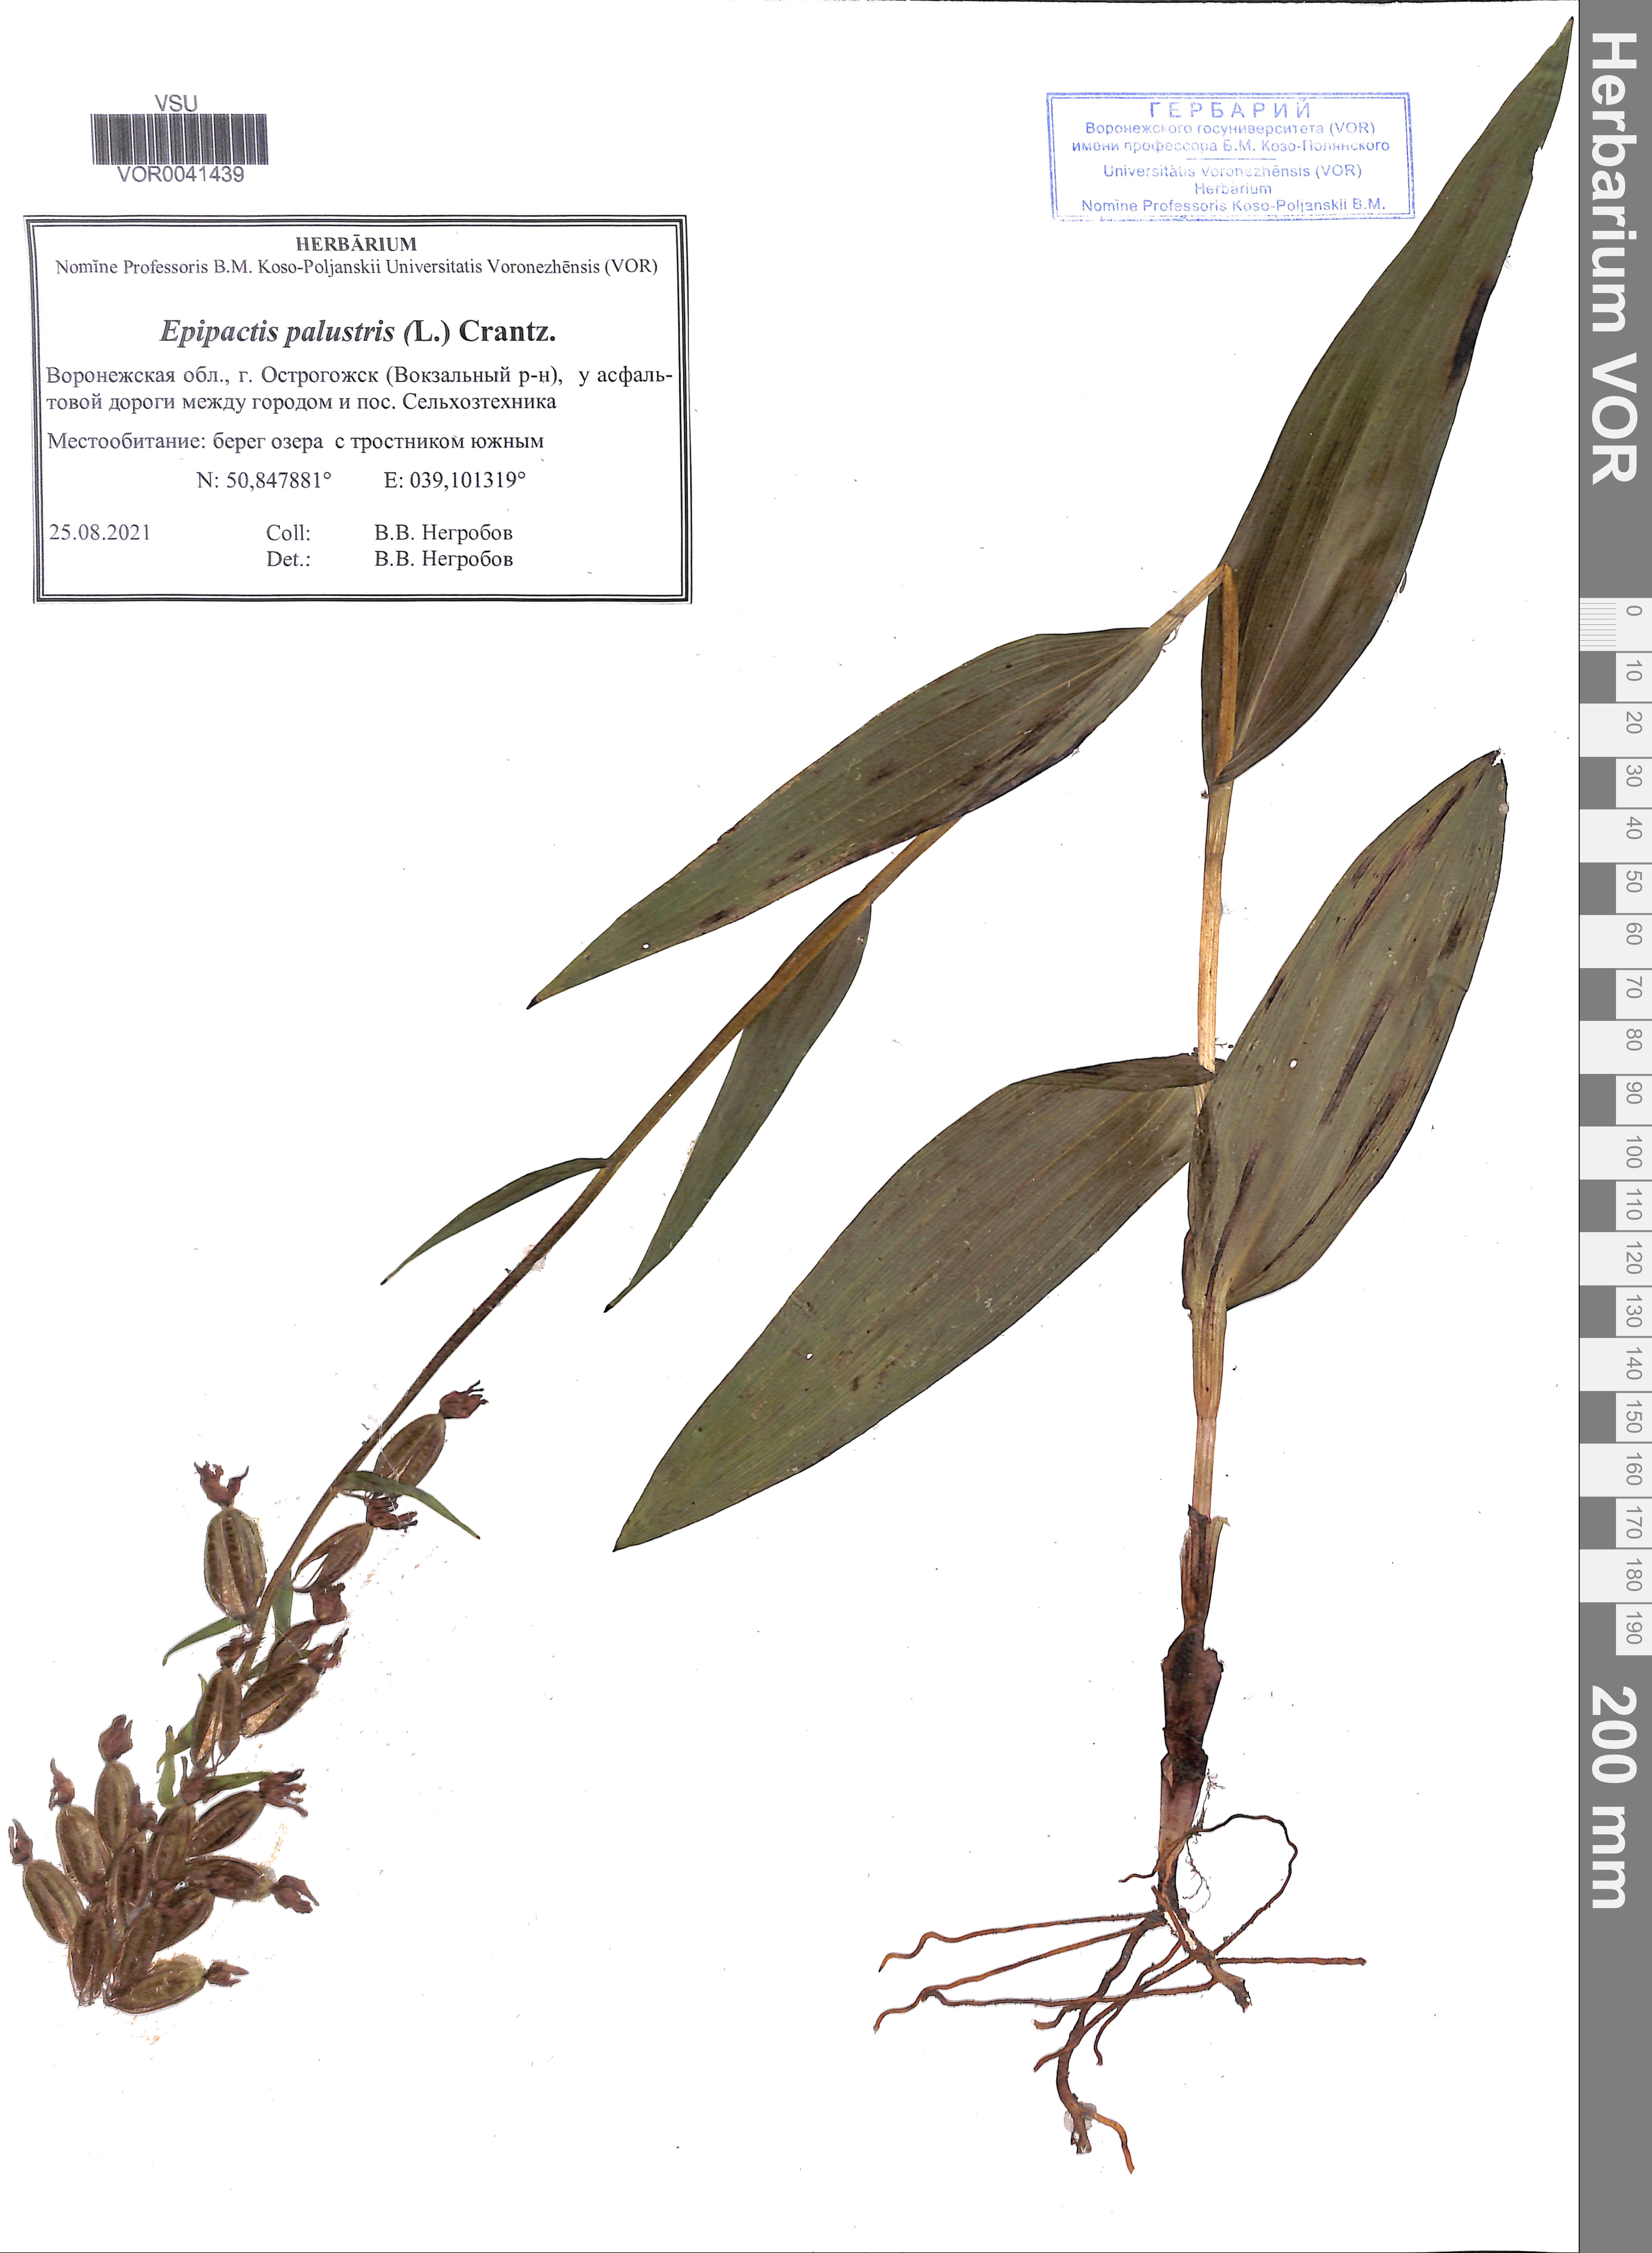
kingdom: Plantae
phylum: Tracheophyta
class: Liliopsida
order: Asparagales
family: Orchidaceae
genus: Epipactis
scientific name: Epipactis palustris
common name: Marsh helleborine
